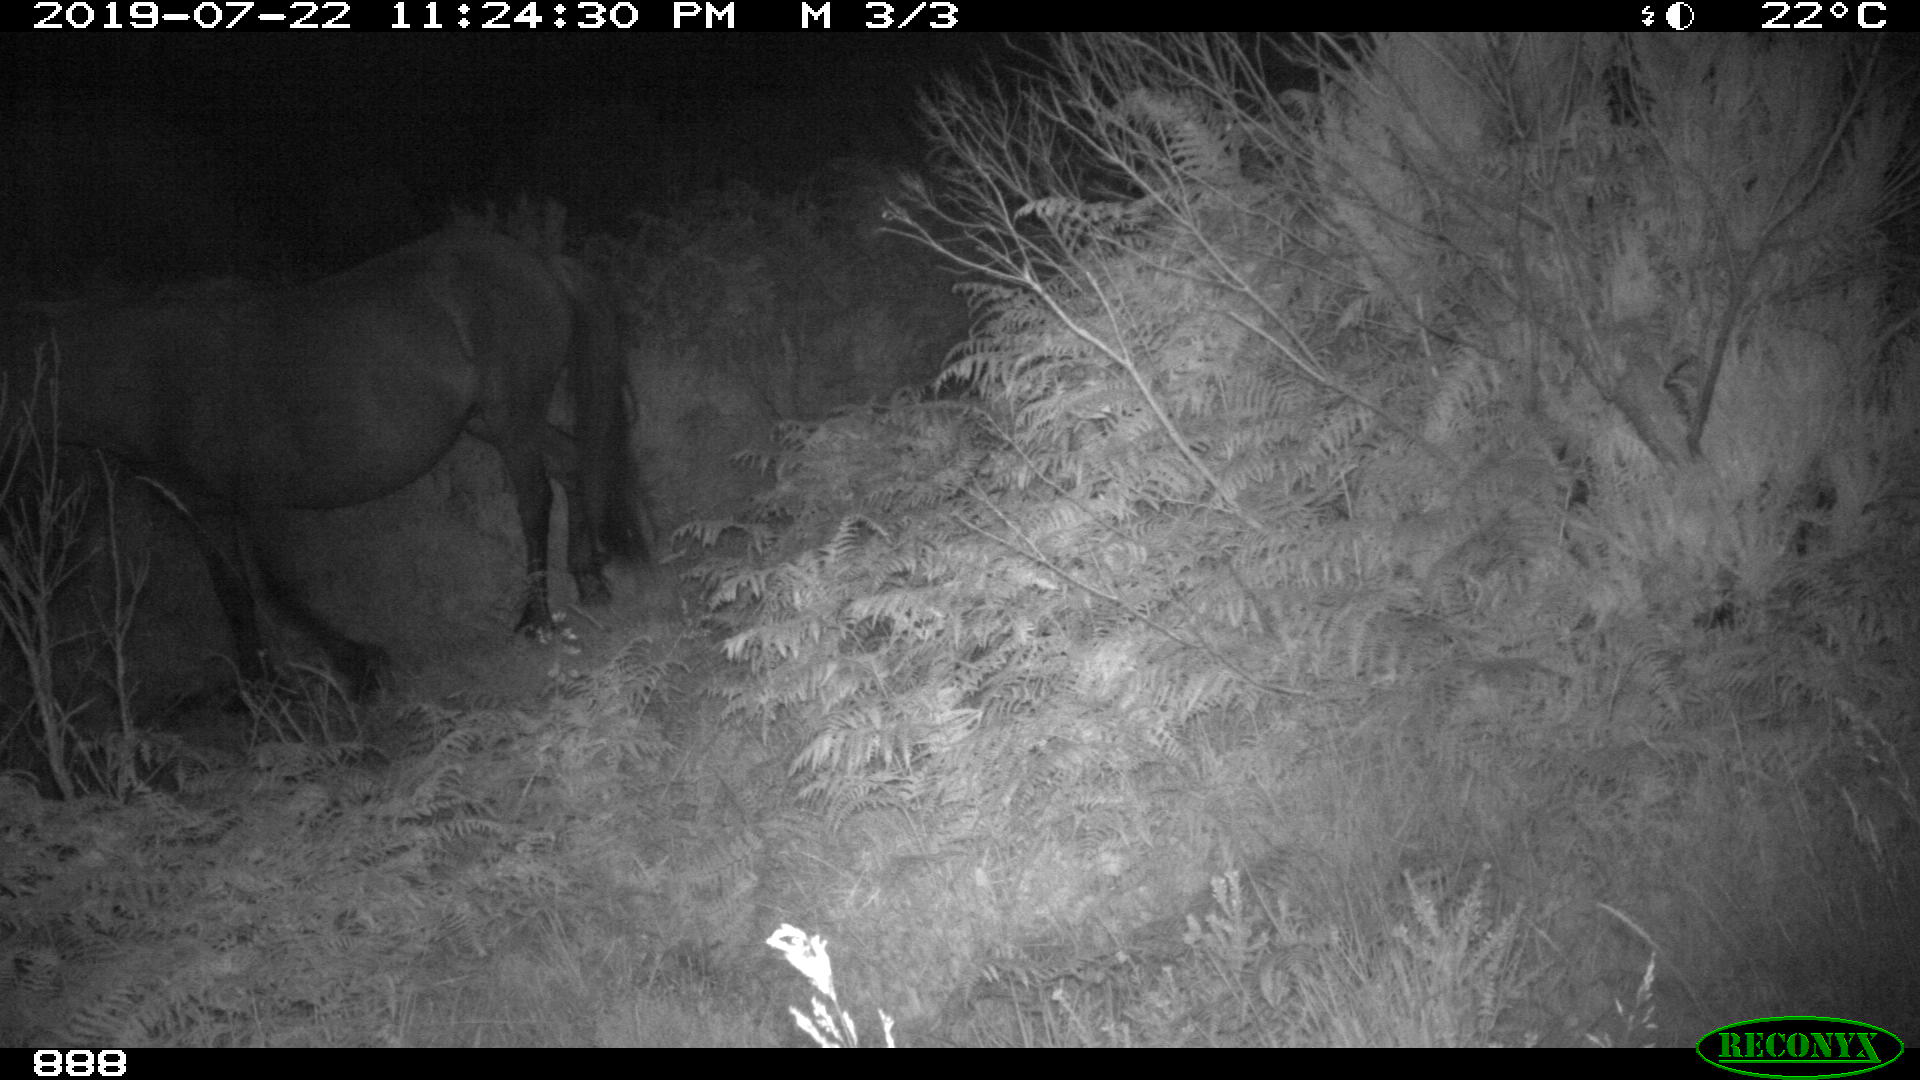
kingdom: Animalia
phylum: Chordata
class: Mammalia
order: Perissodactyla
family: Equidae
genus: Equus
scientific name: Equus caballus
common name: Horse
